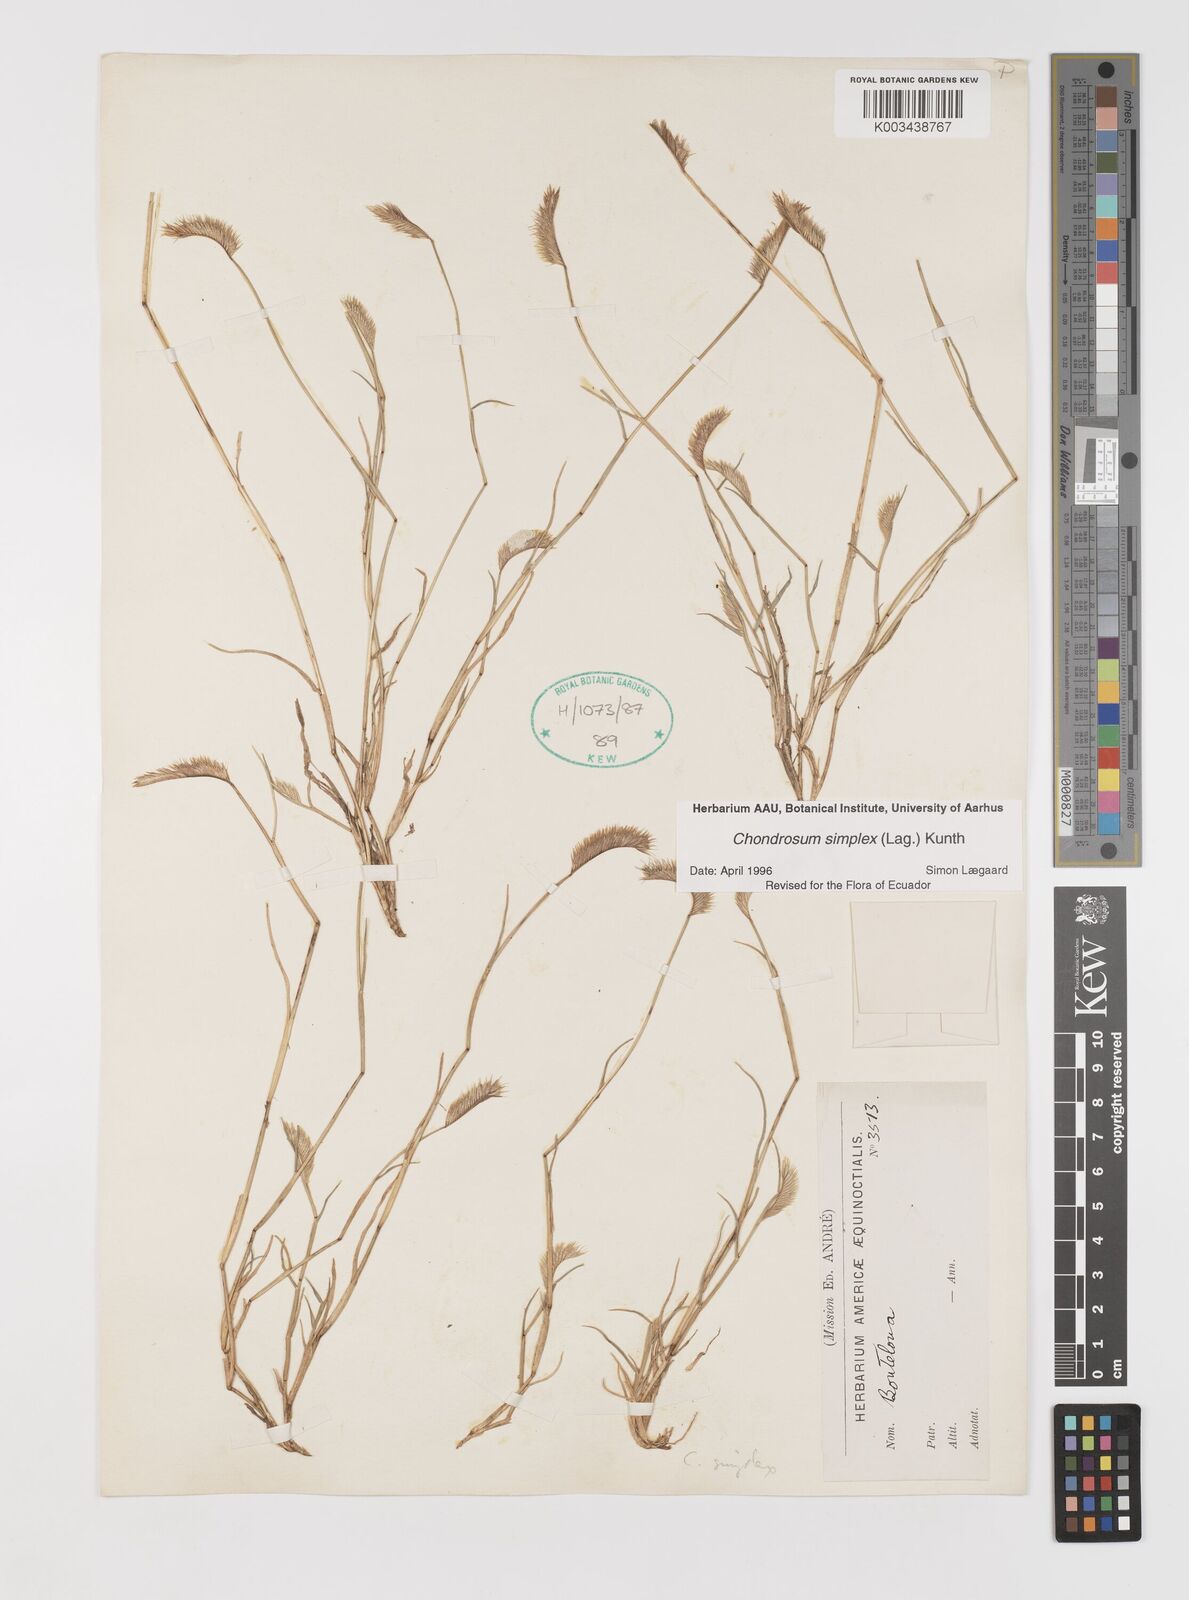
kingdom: Plantae
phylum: Tracheophyta
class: Liliopsida
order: Poales
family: Poaceae
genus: Bouteloua
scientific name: Bouteloua simplex
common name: Mat grama
